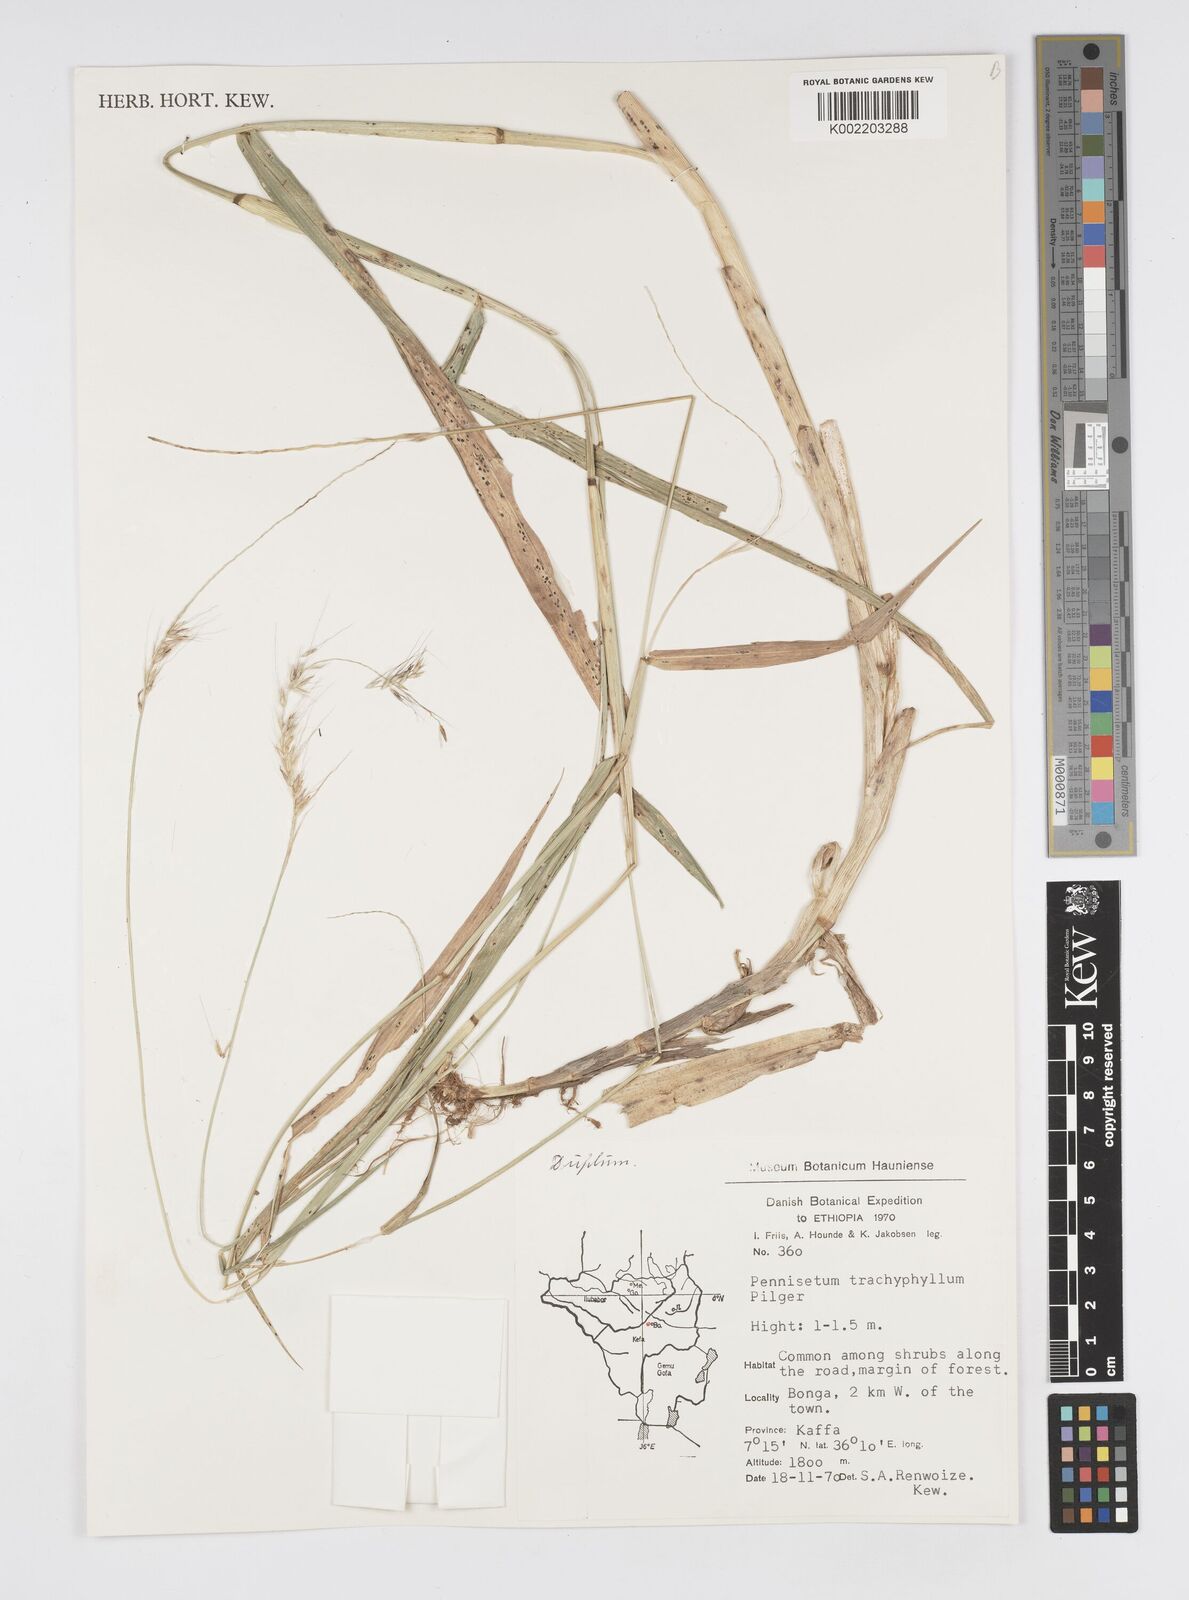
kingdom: Plantae
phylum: Tracheophyta
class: Liliopsida
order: Poales
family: Poaceae
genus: Cenchrus
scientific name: Cenchrus trachyphyllus
